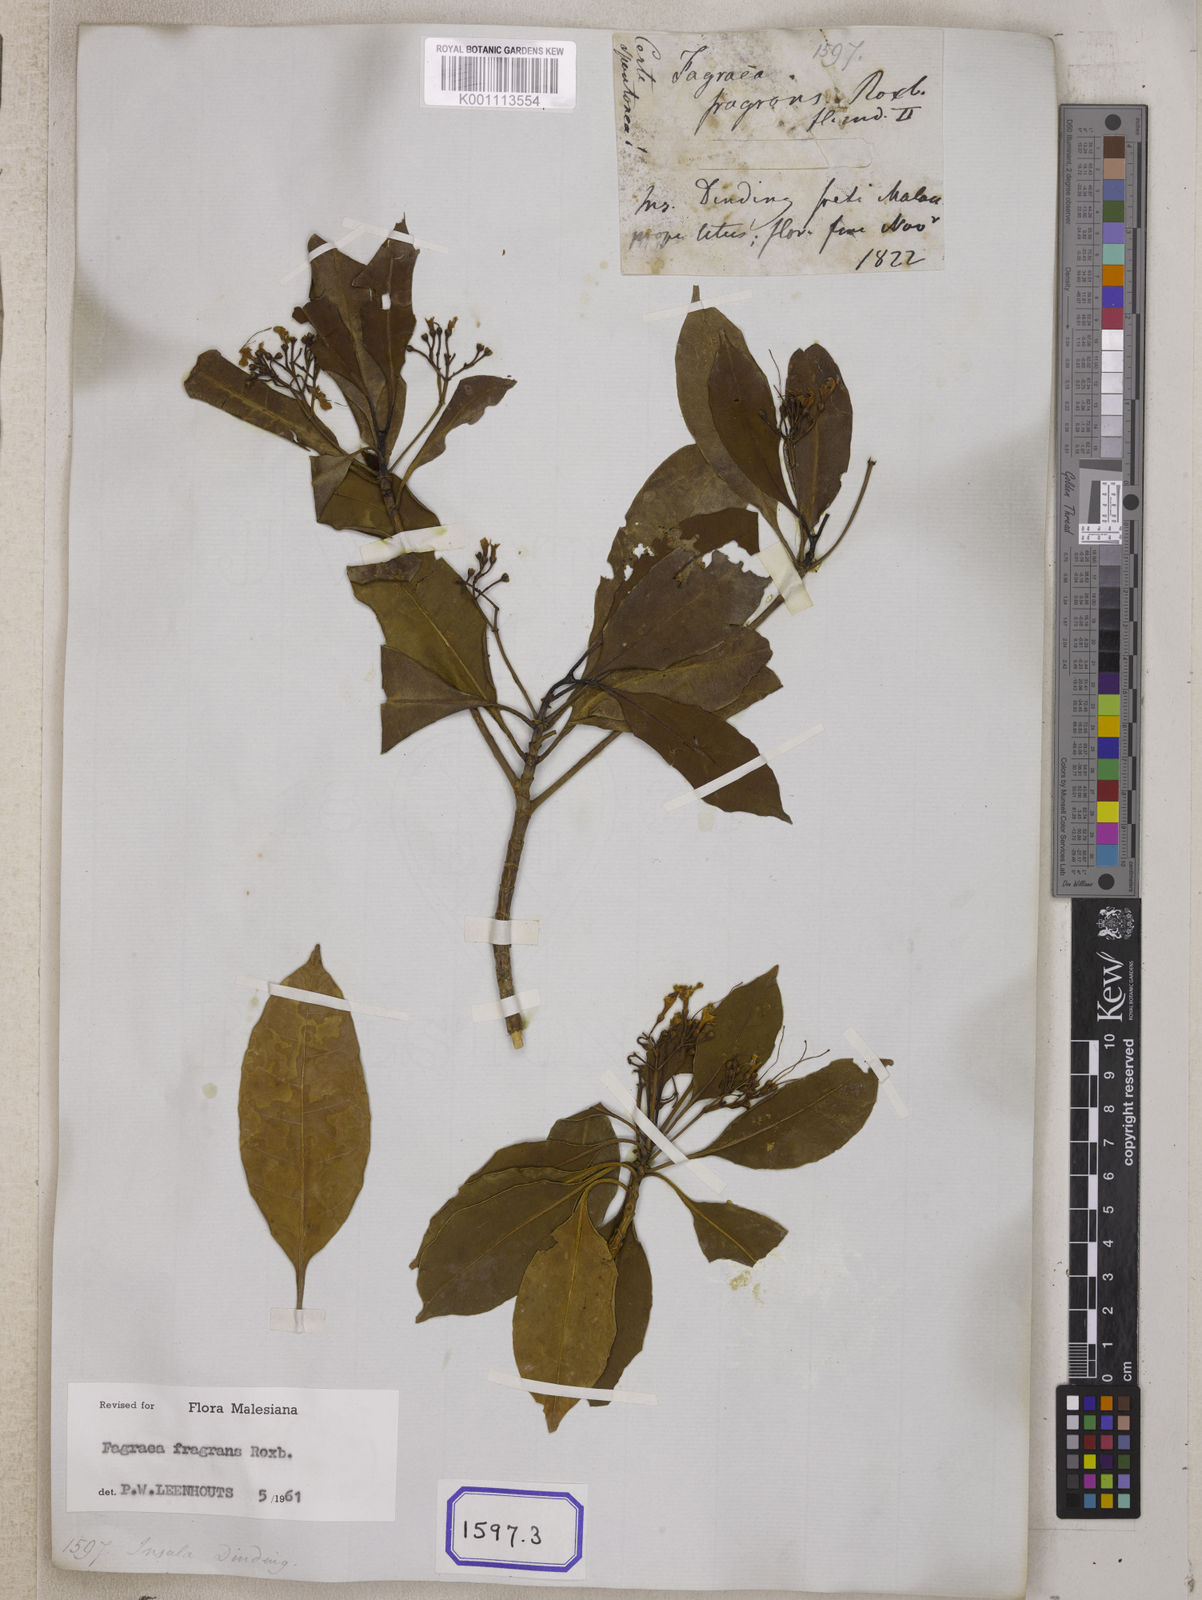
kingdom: Plantae
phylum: Tracheophyta
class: Magnoliopsida
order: Gentianales
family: Gentianaceae
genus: Cyrtophyllum
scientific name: Cyrtophyllum fragrans
